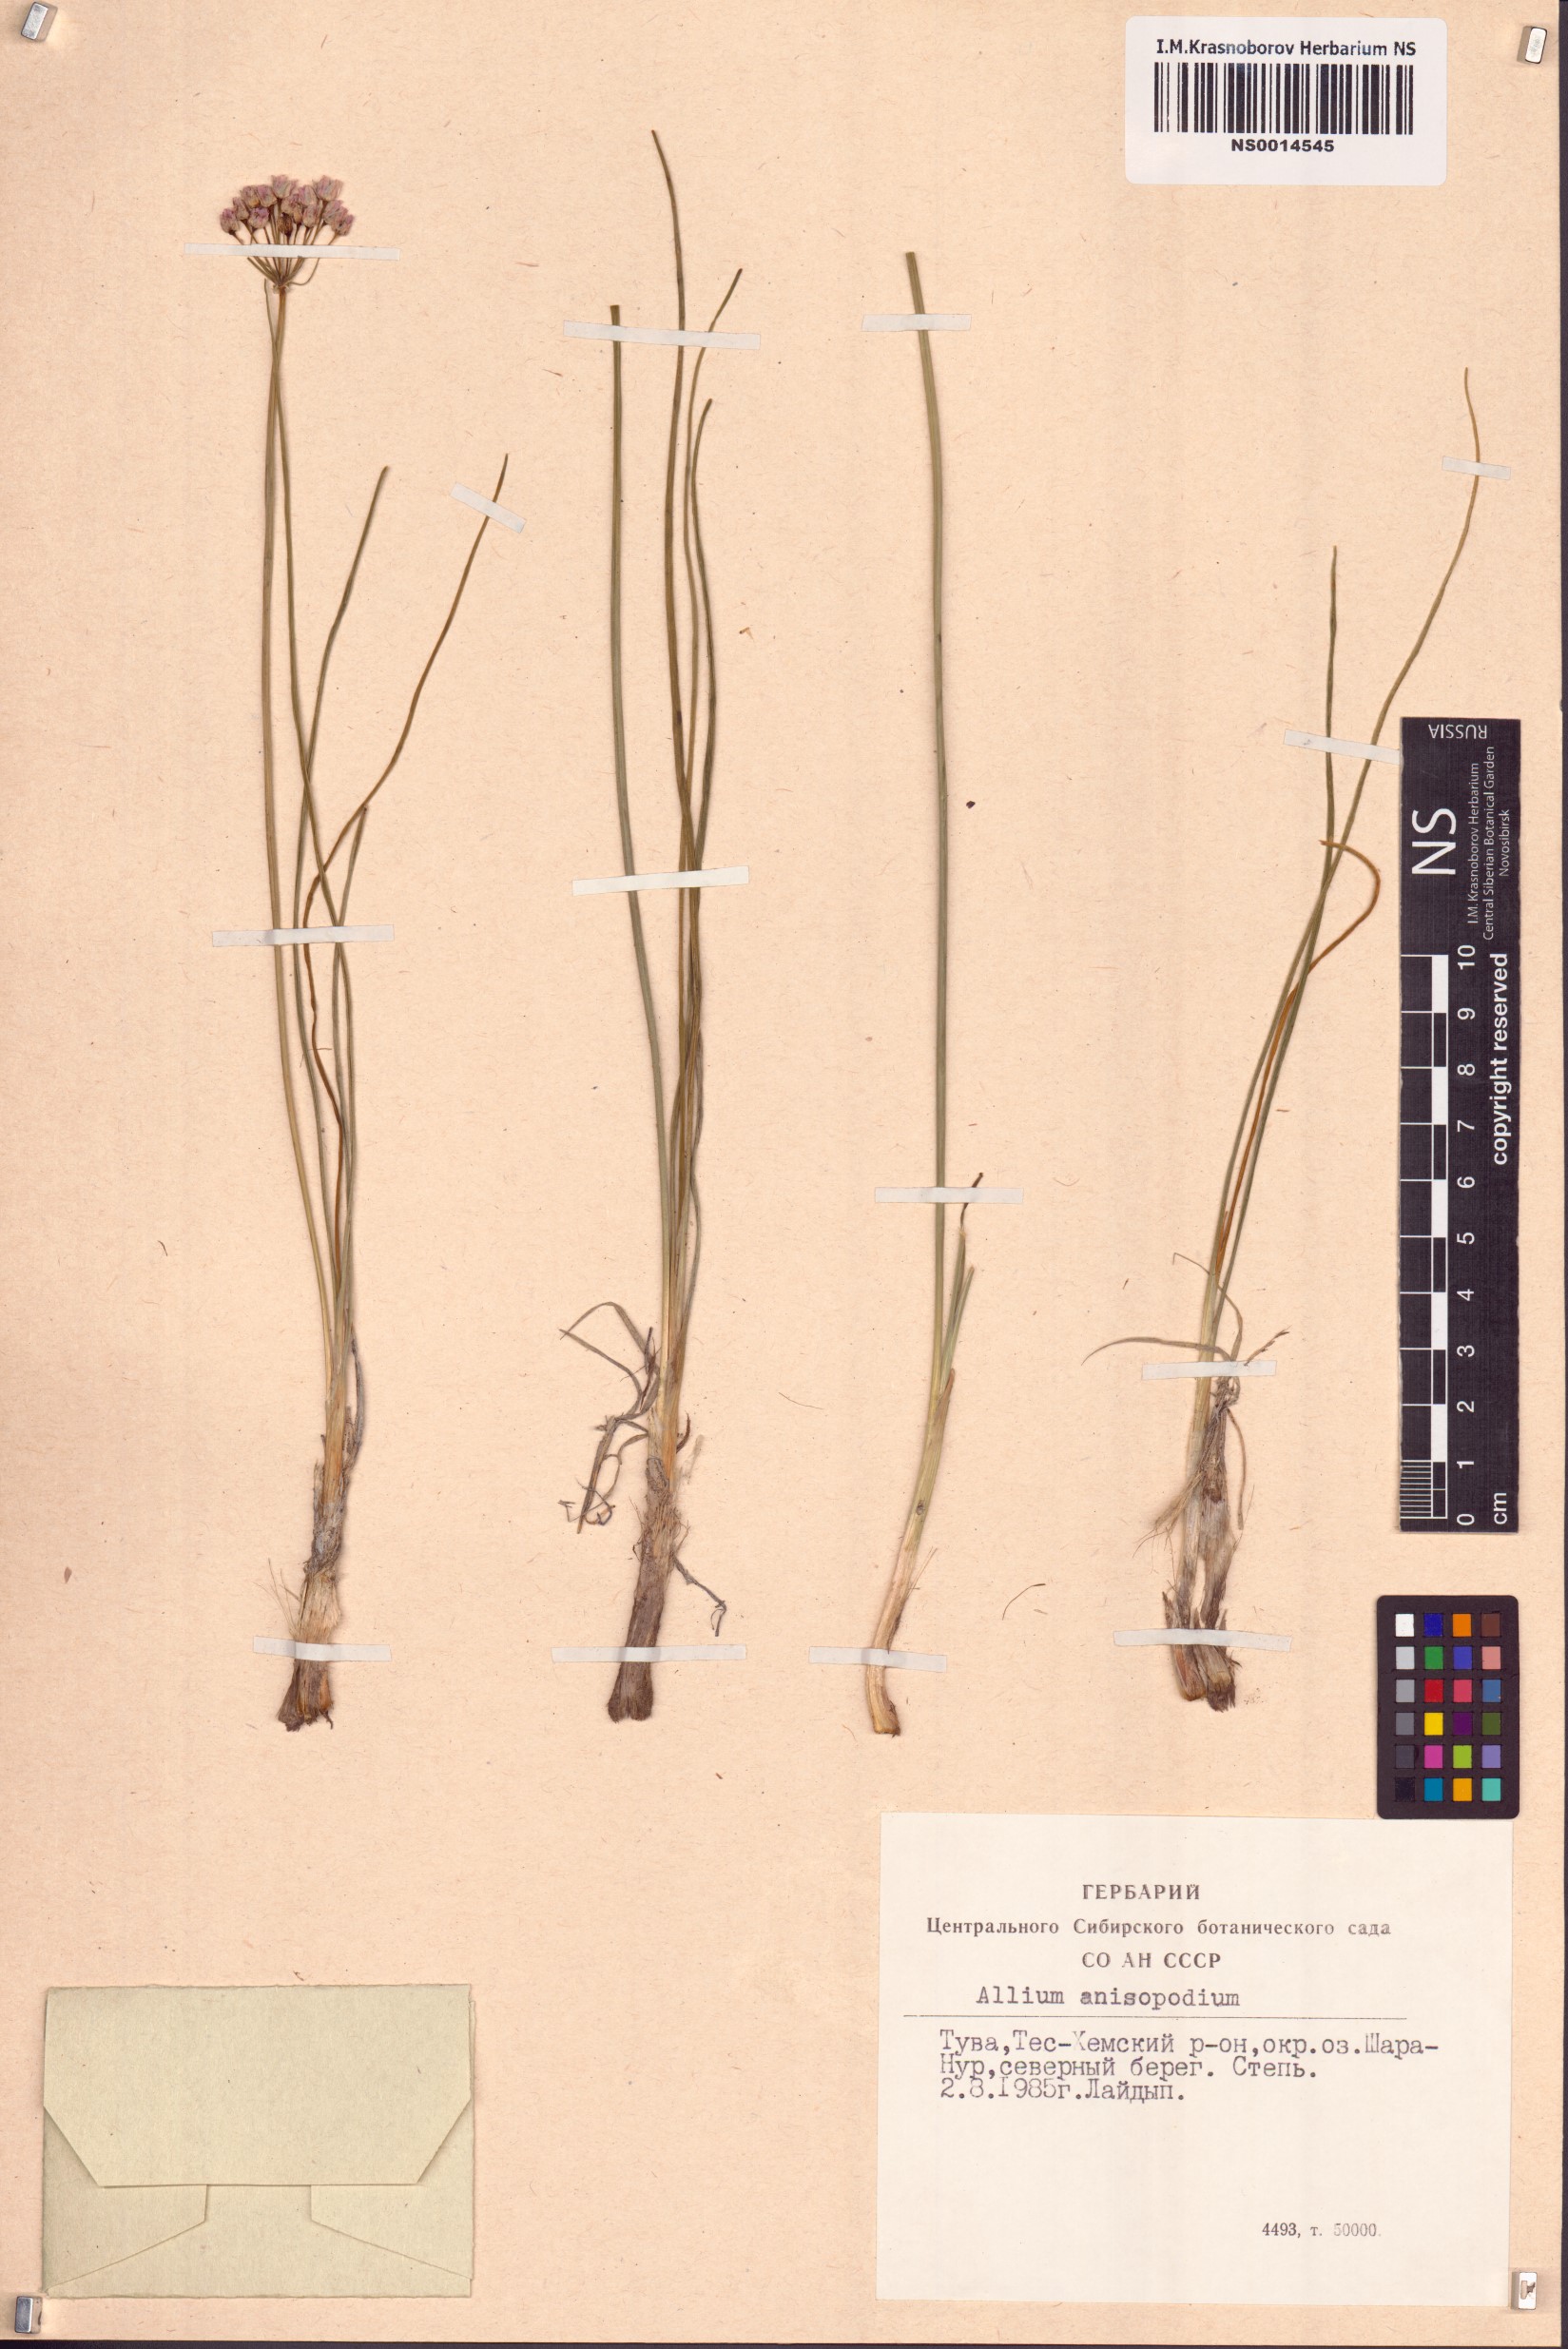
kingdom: Plantae
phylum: Tracheophyta
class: Liliopsida
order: Asparagales
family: Amaryllidaceae
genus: Allium
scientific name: Allium anisopodium
